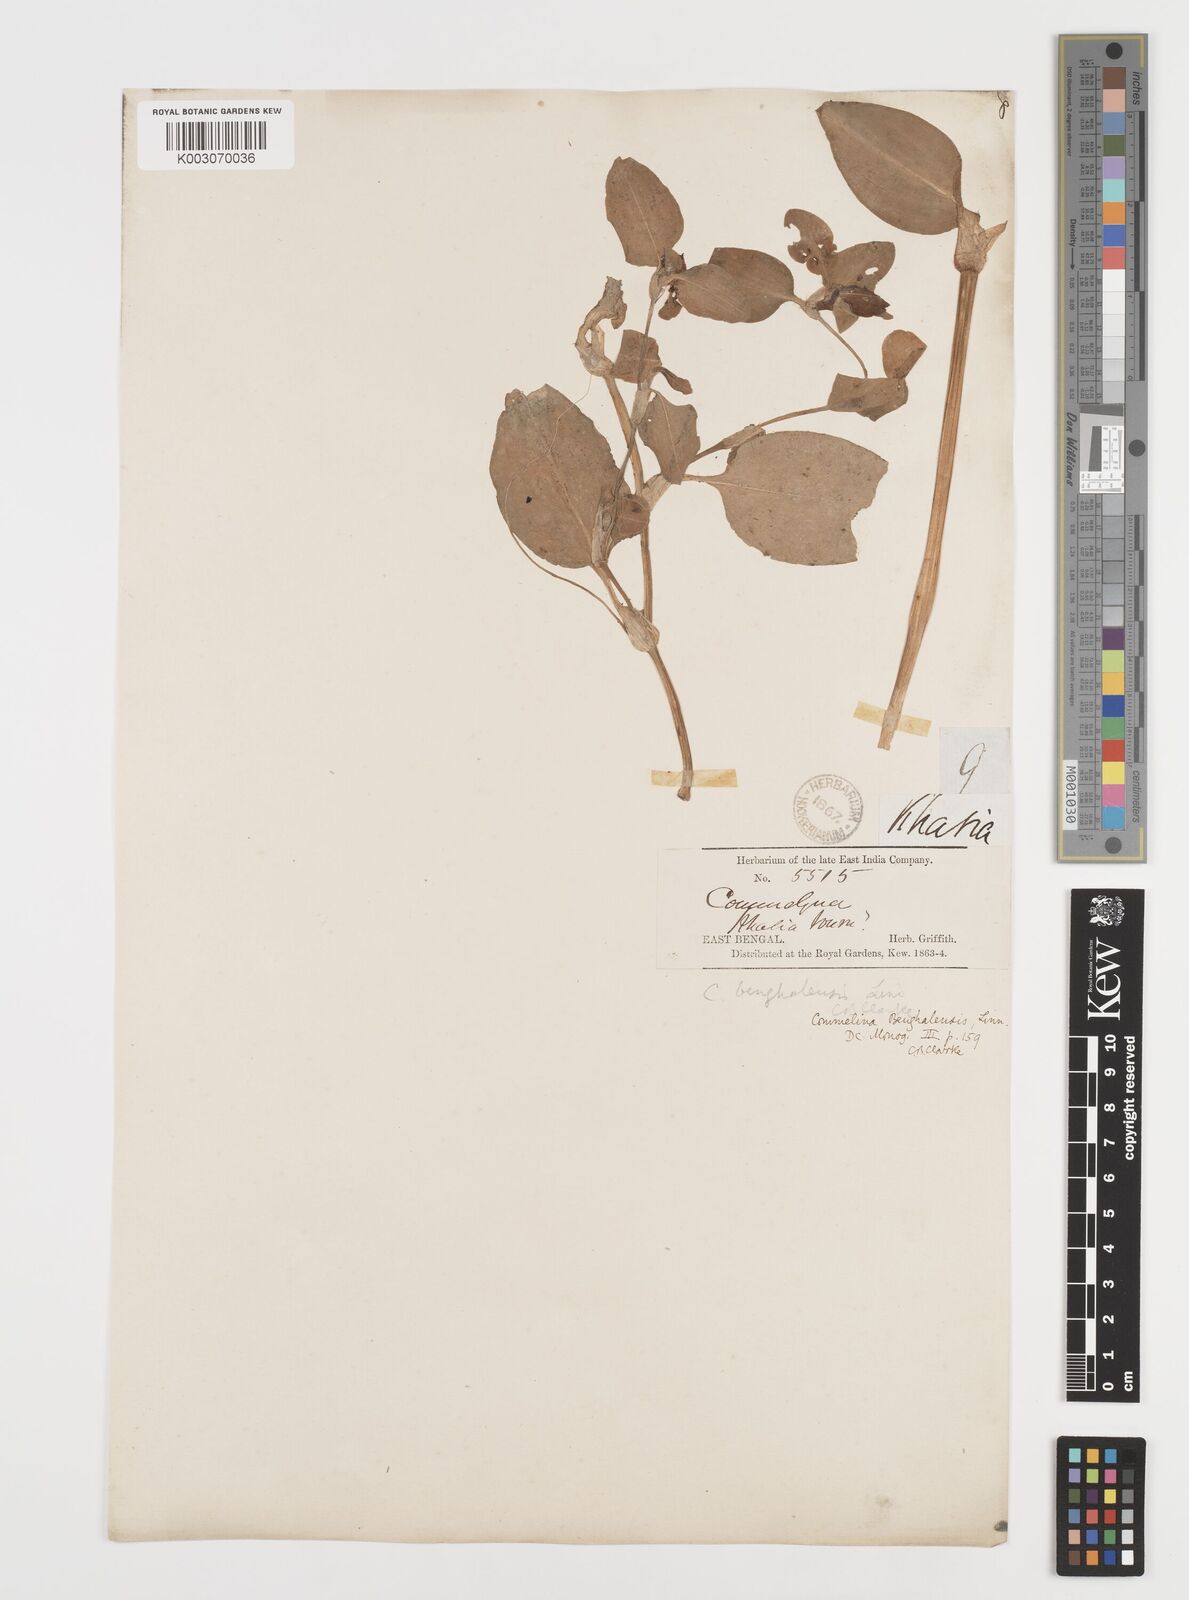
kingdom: Plantae
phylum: Tracheophyta
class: Liliopsida
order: Commelinales
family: Commelinaceae
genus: Commelina
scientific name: Commelina
